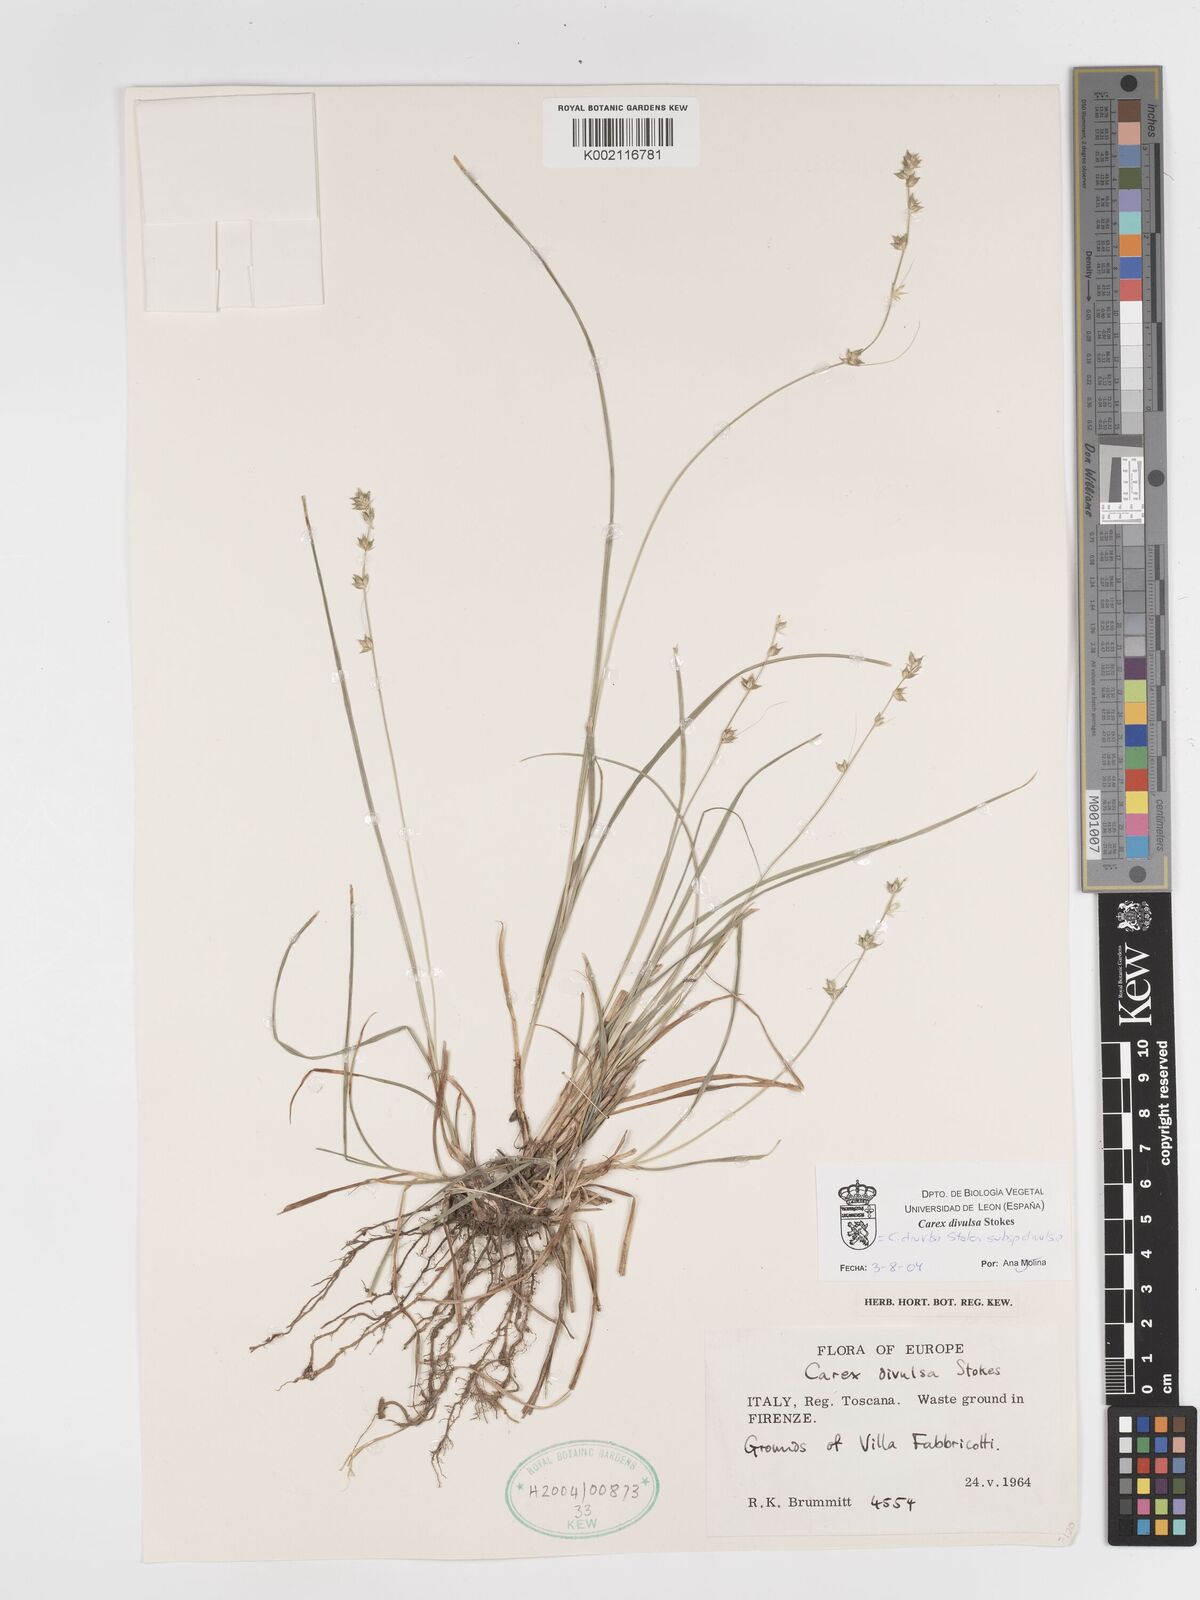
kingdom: Plantae
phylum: Tracheophyta
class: Liliopsida
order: Poales
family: Cyperaceae
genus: Carex
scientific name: Carex divulsa
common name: Grassland sedge
